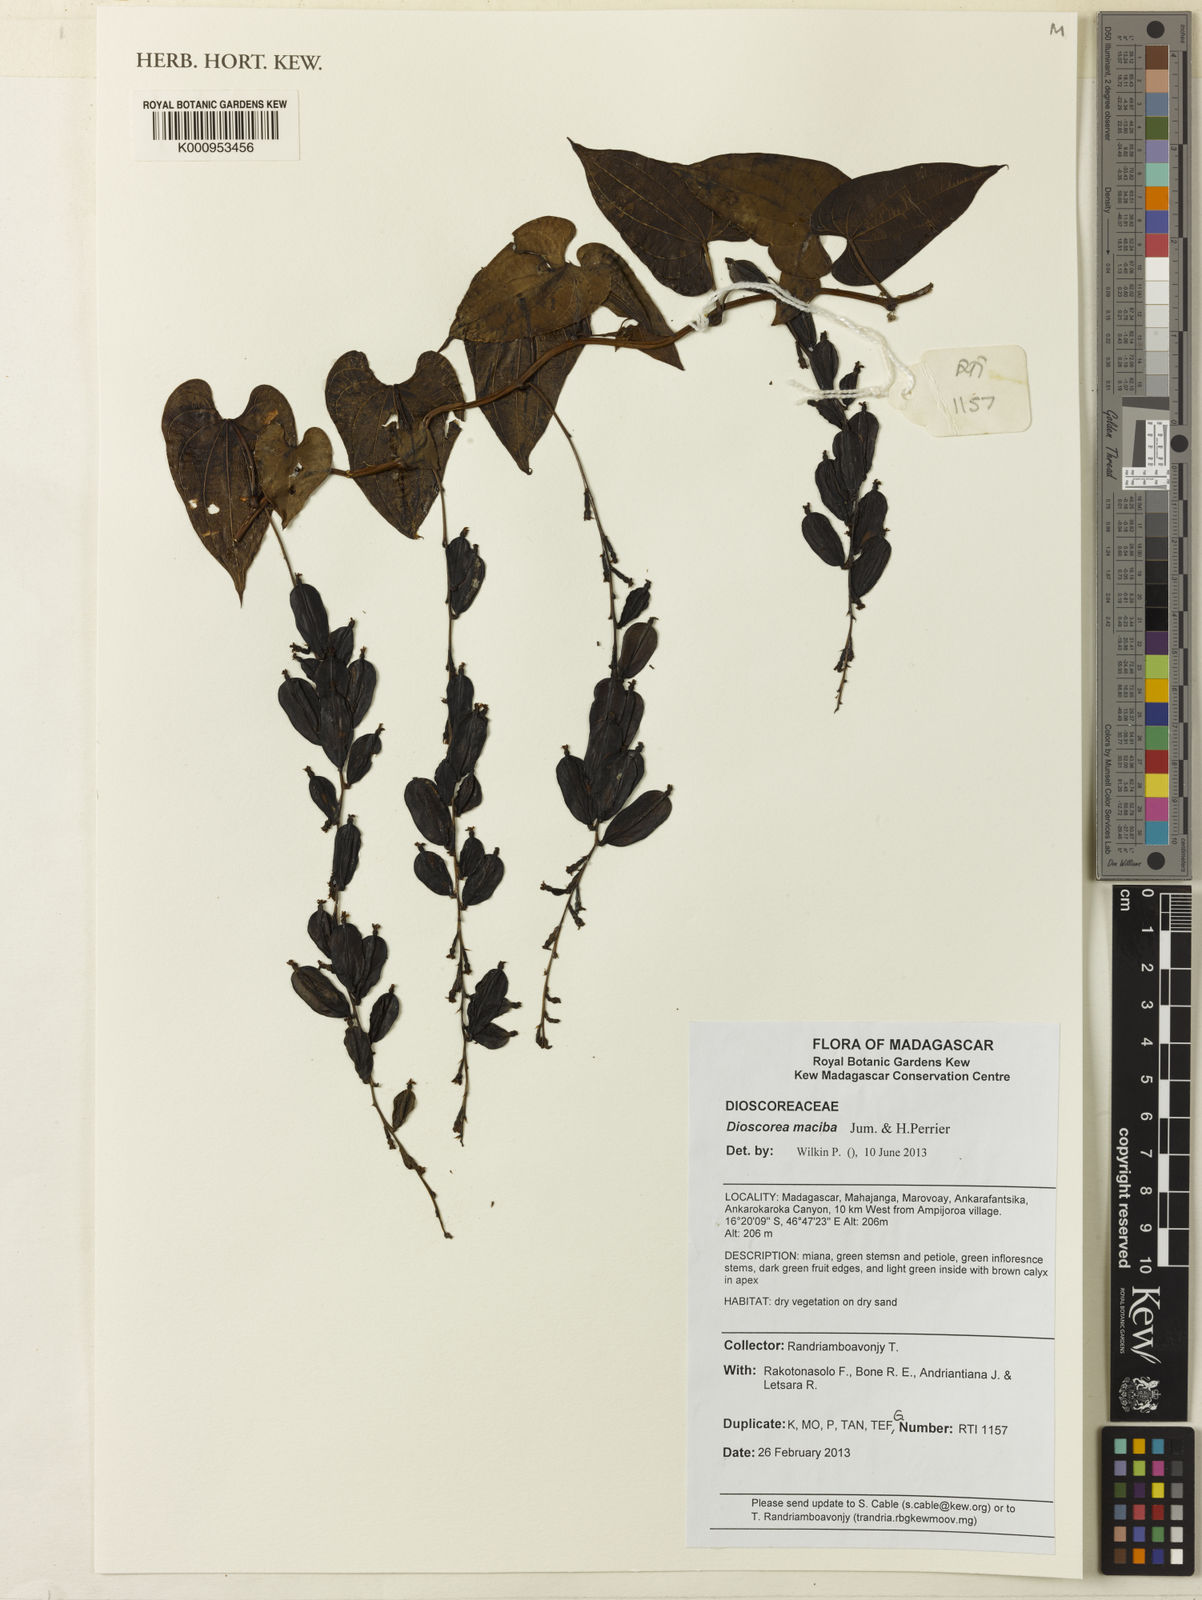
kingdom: Plantae
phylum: Tracheophyta
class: Liliopsida
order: Dioscoreales
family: Dioscoreaceae
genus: Dioscorea
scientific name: Dioscorea maciba
